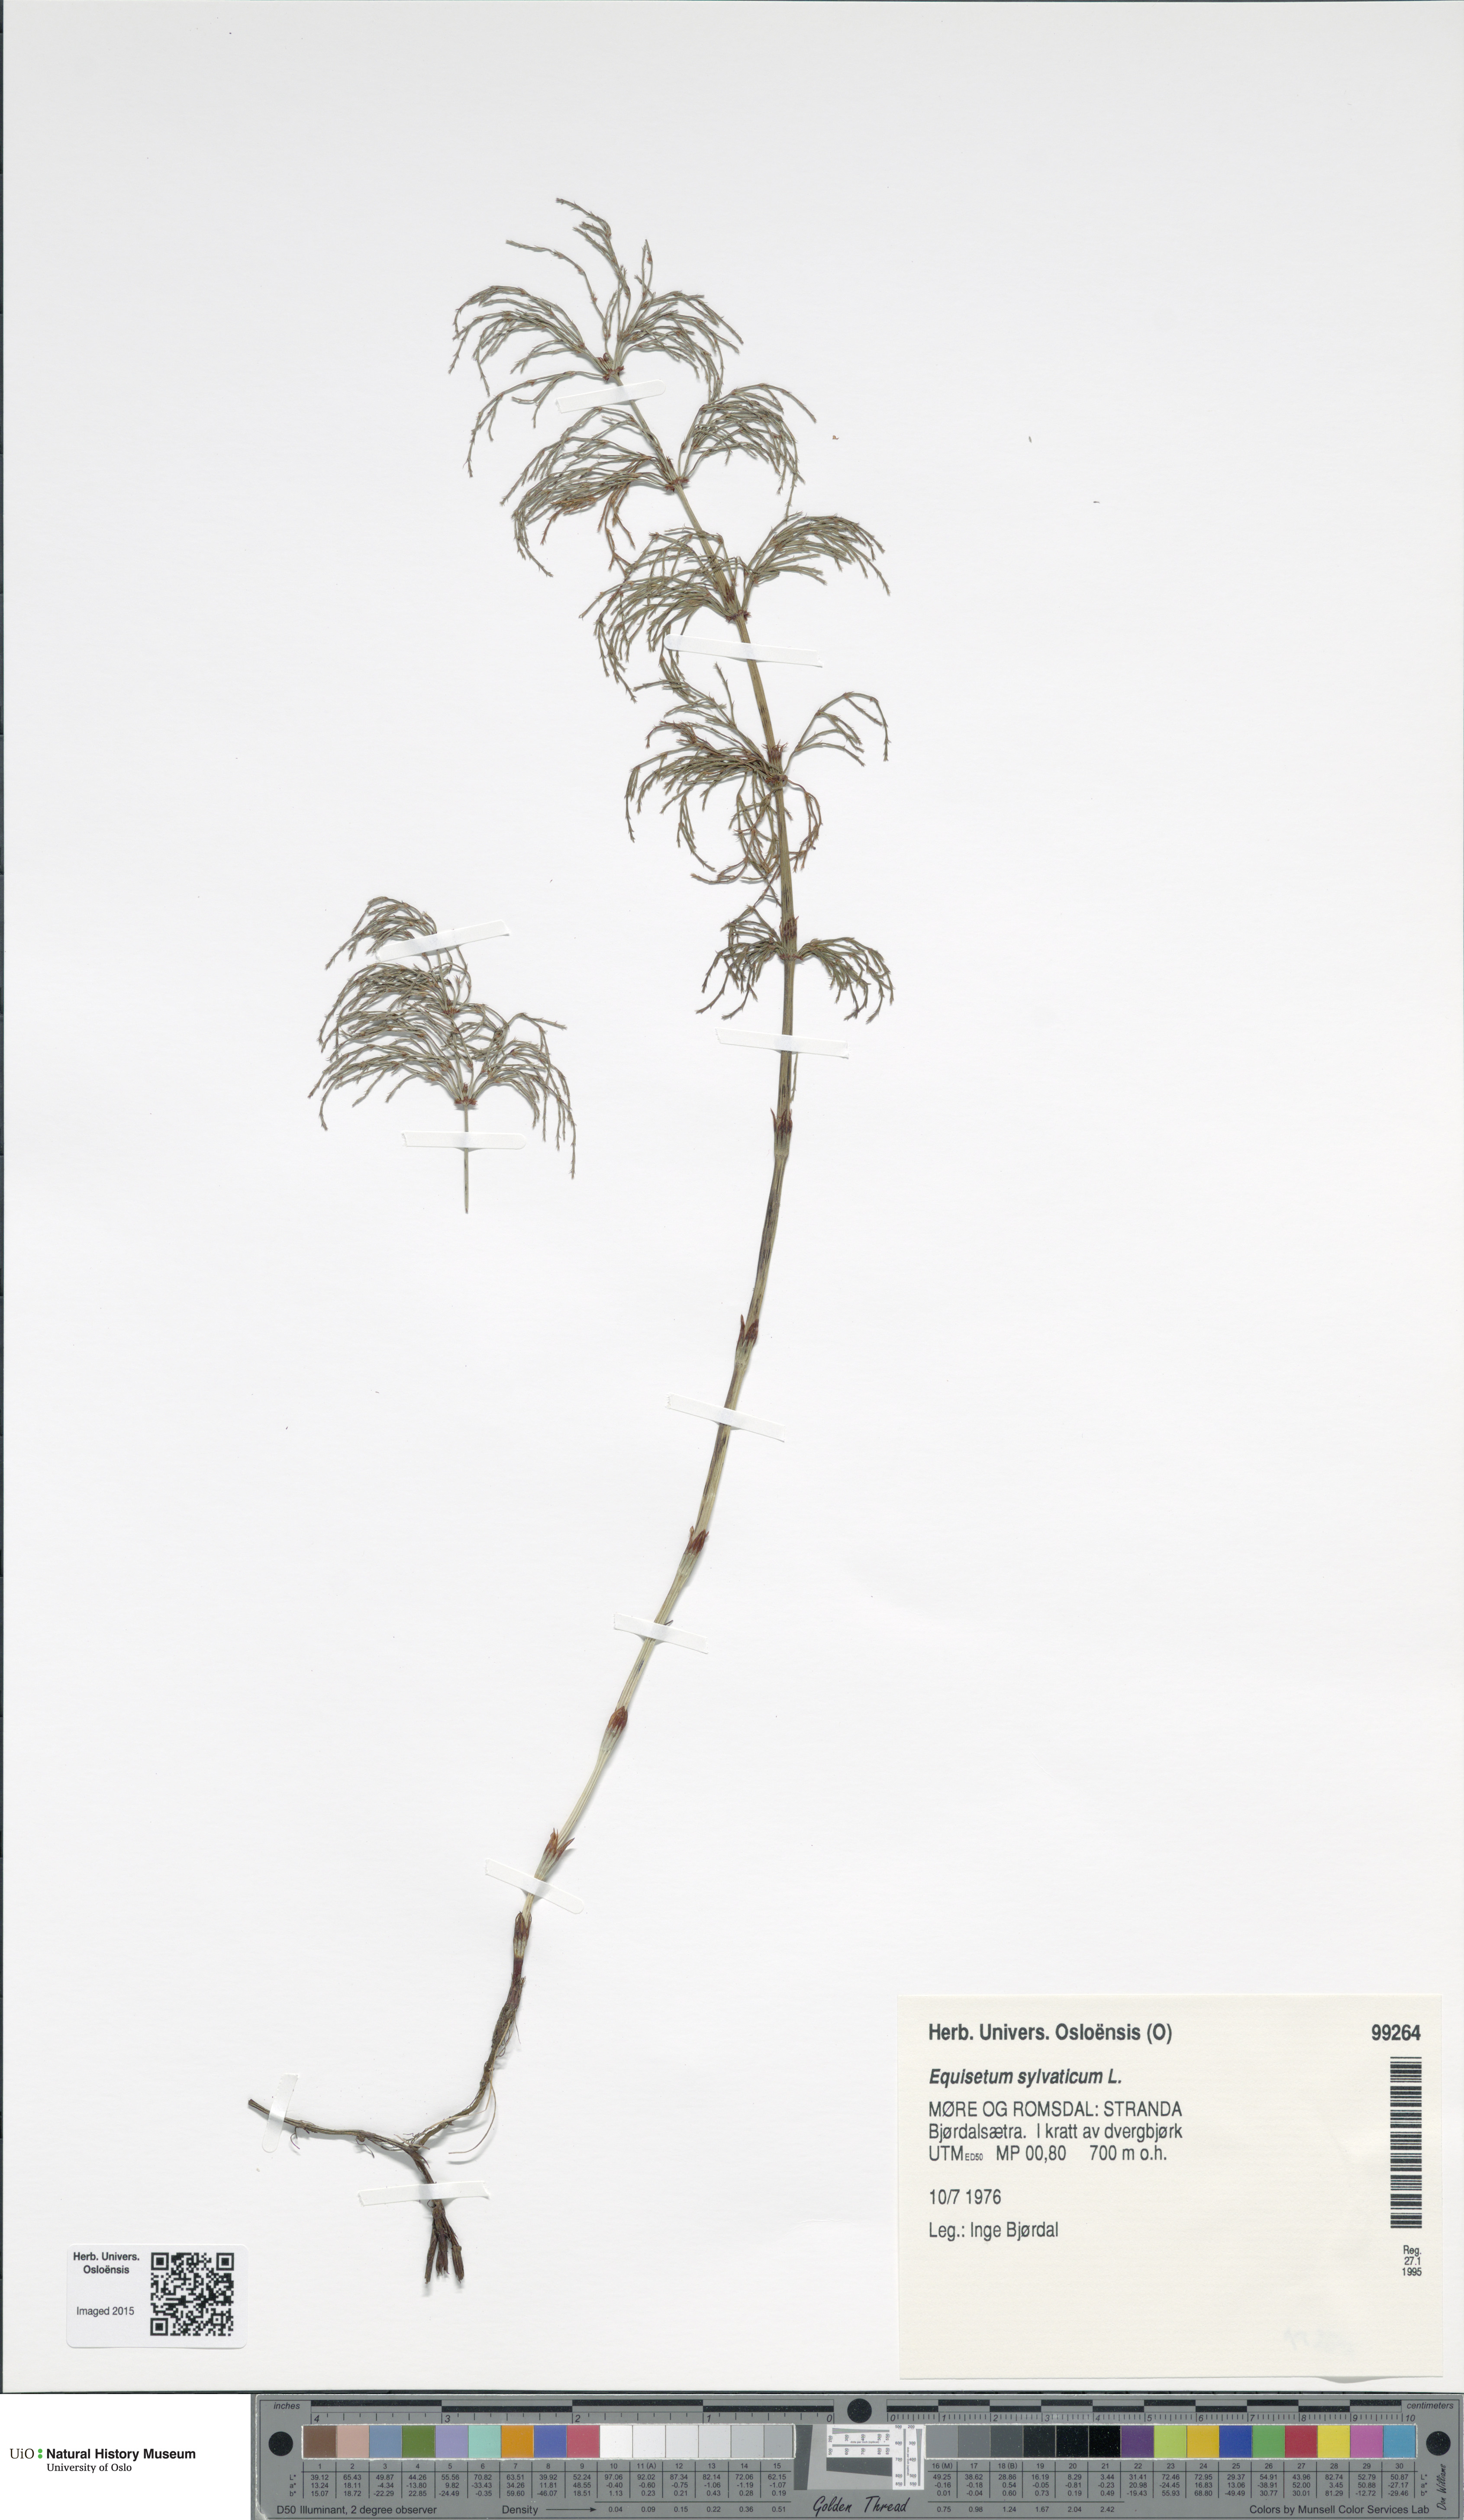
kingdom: Plantae
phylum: Tracheophyta
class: Polypodiopsida
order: Equisetales
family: Equisetaceae
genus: Equisetum
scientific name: Equisetum sylvaticum
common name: Wood horsetail
